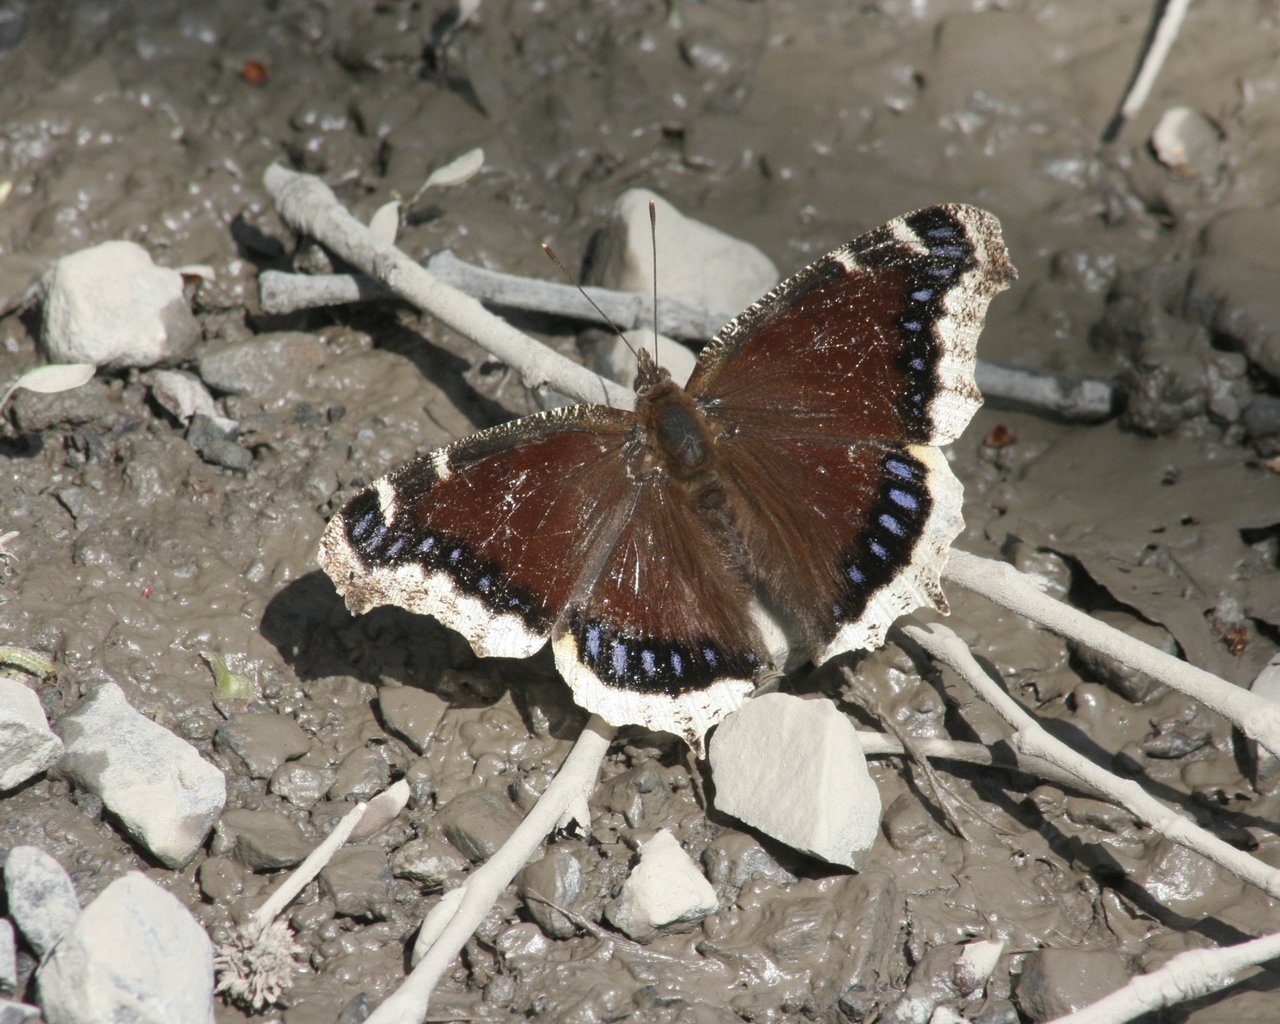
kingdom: Animalia
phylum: Arthropoda
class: Insecta
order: Lepidoptera
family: Nymphalidae
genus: Nymphalis
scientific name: Nymphalis antiopa
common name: Mourning Cloak
